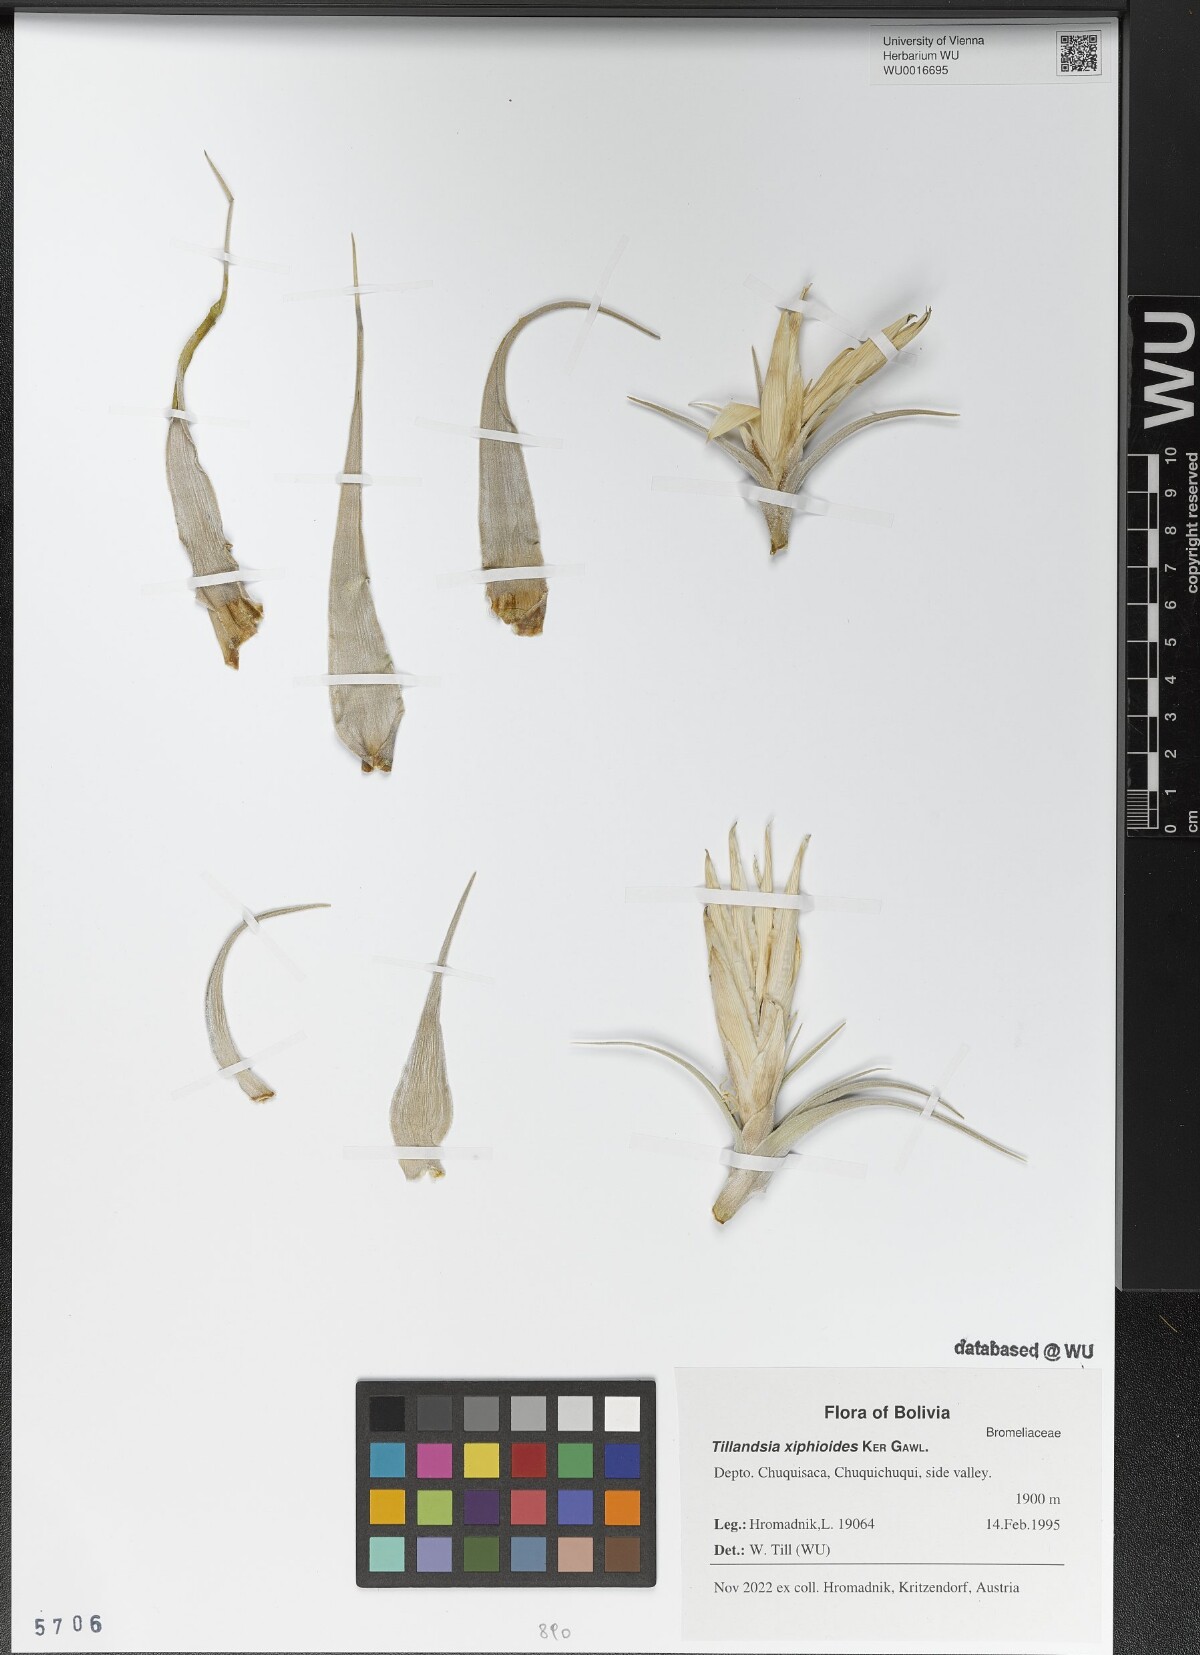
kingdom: Plantae
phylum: Tracheophyta
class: Liliopsida
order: Poales
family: Bromeliaceae
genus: Tillandsia
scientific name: Tillandsia xiphioides
